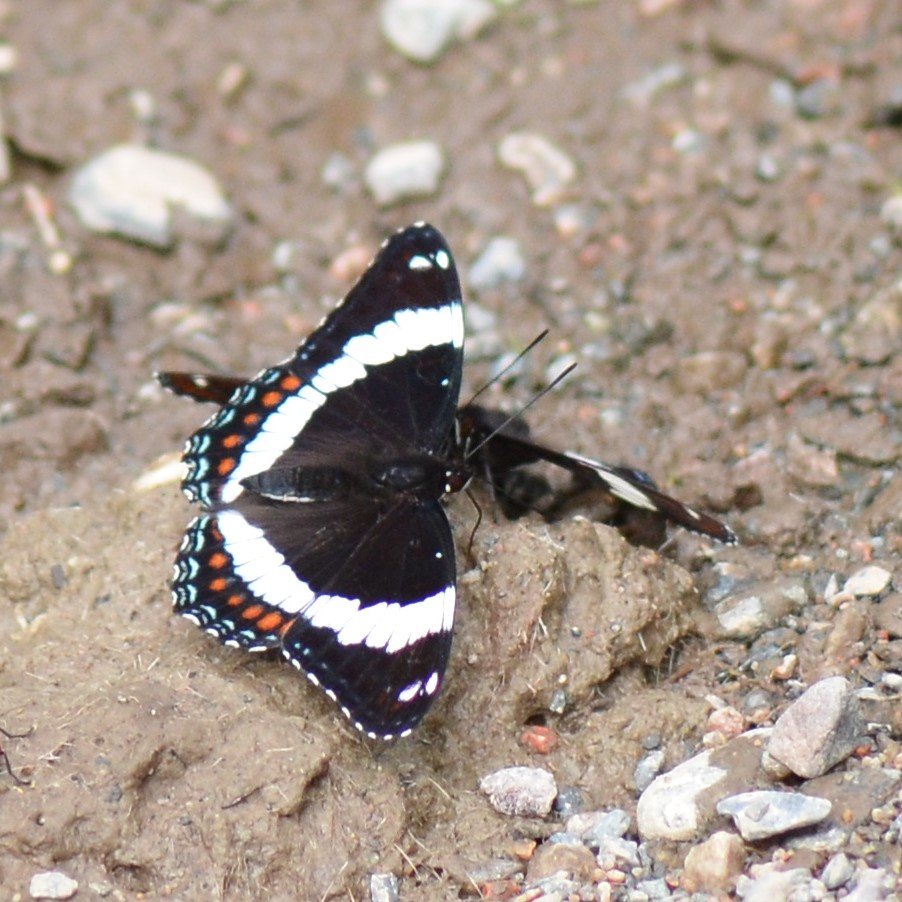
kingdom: Animalia
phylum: Arthropoda
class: Insecta
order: Lepidoptera
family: Nymphalidae
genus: Limenitis
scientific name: Limenitis arthemis
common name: Red-spotted Admiral
